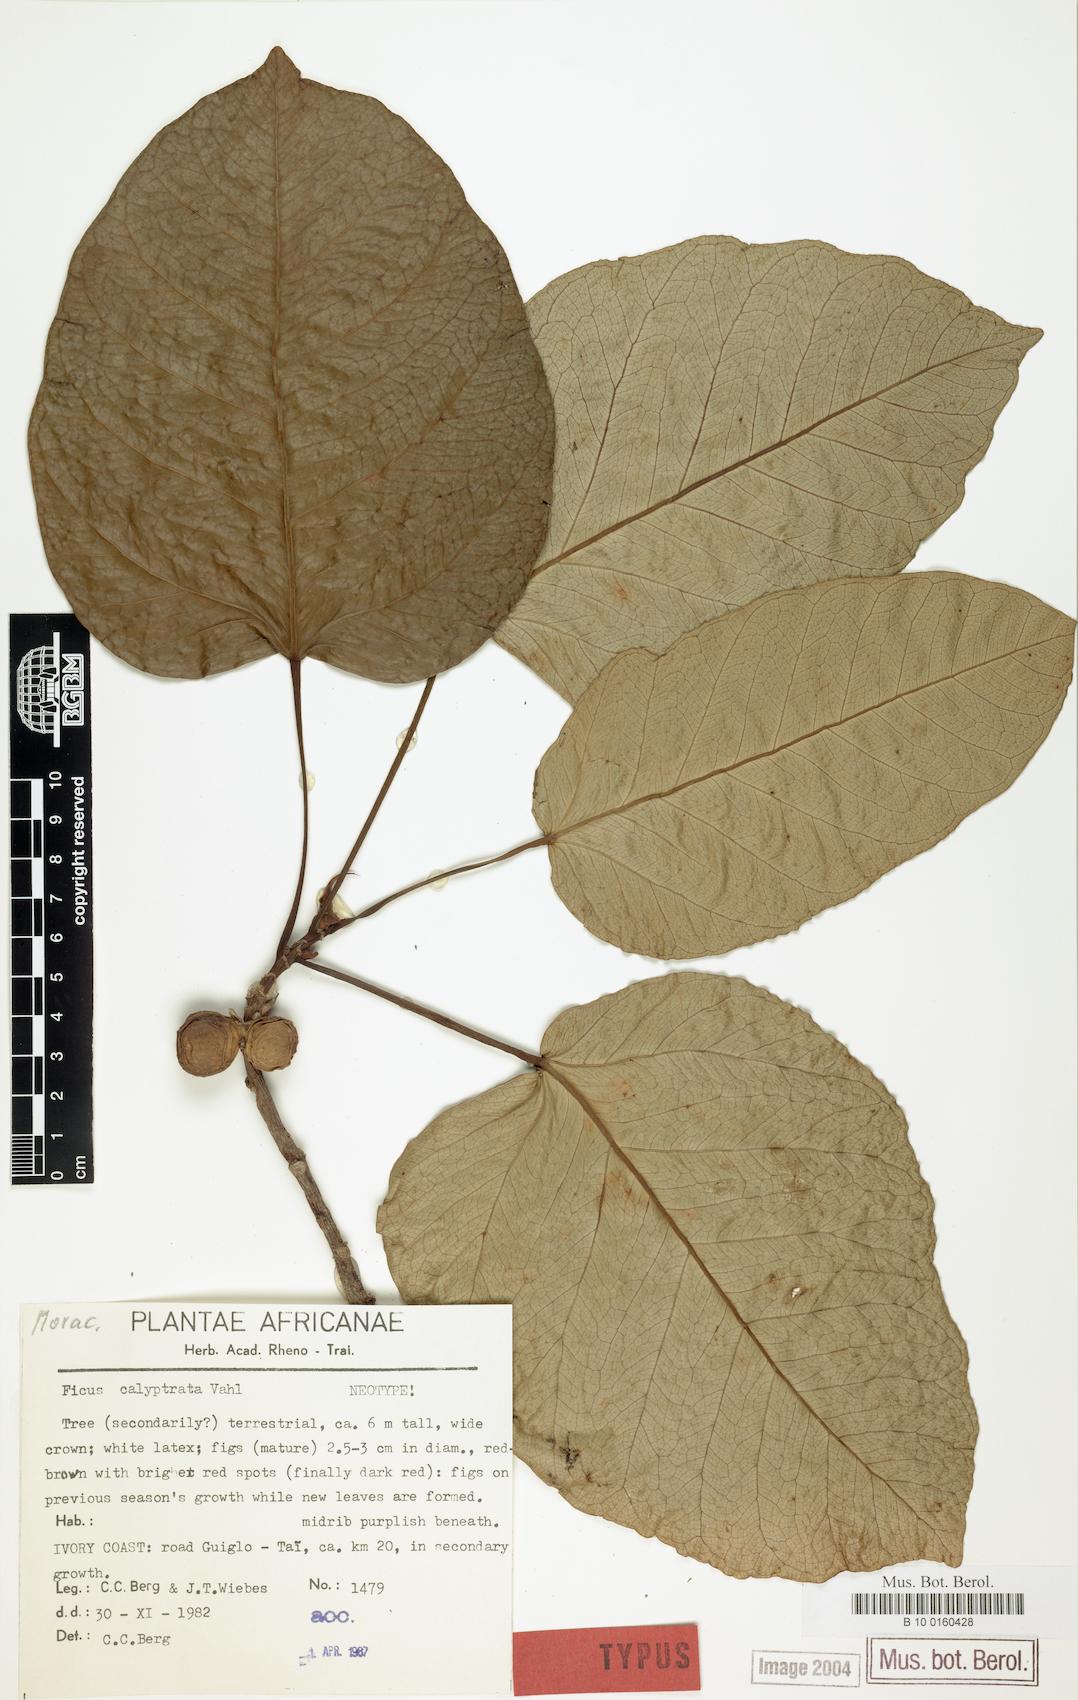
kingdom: Plantae
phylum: Tracheophyta
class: Magnoliopsida
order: Rosales
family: Moraceae
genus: Ficus
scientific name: Ficus calyptrata
